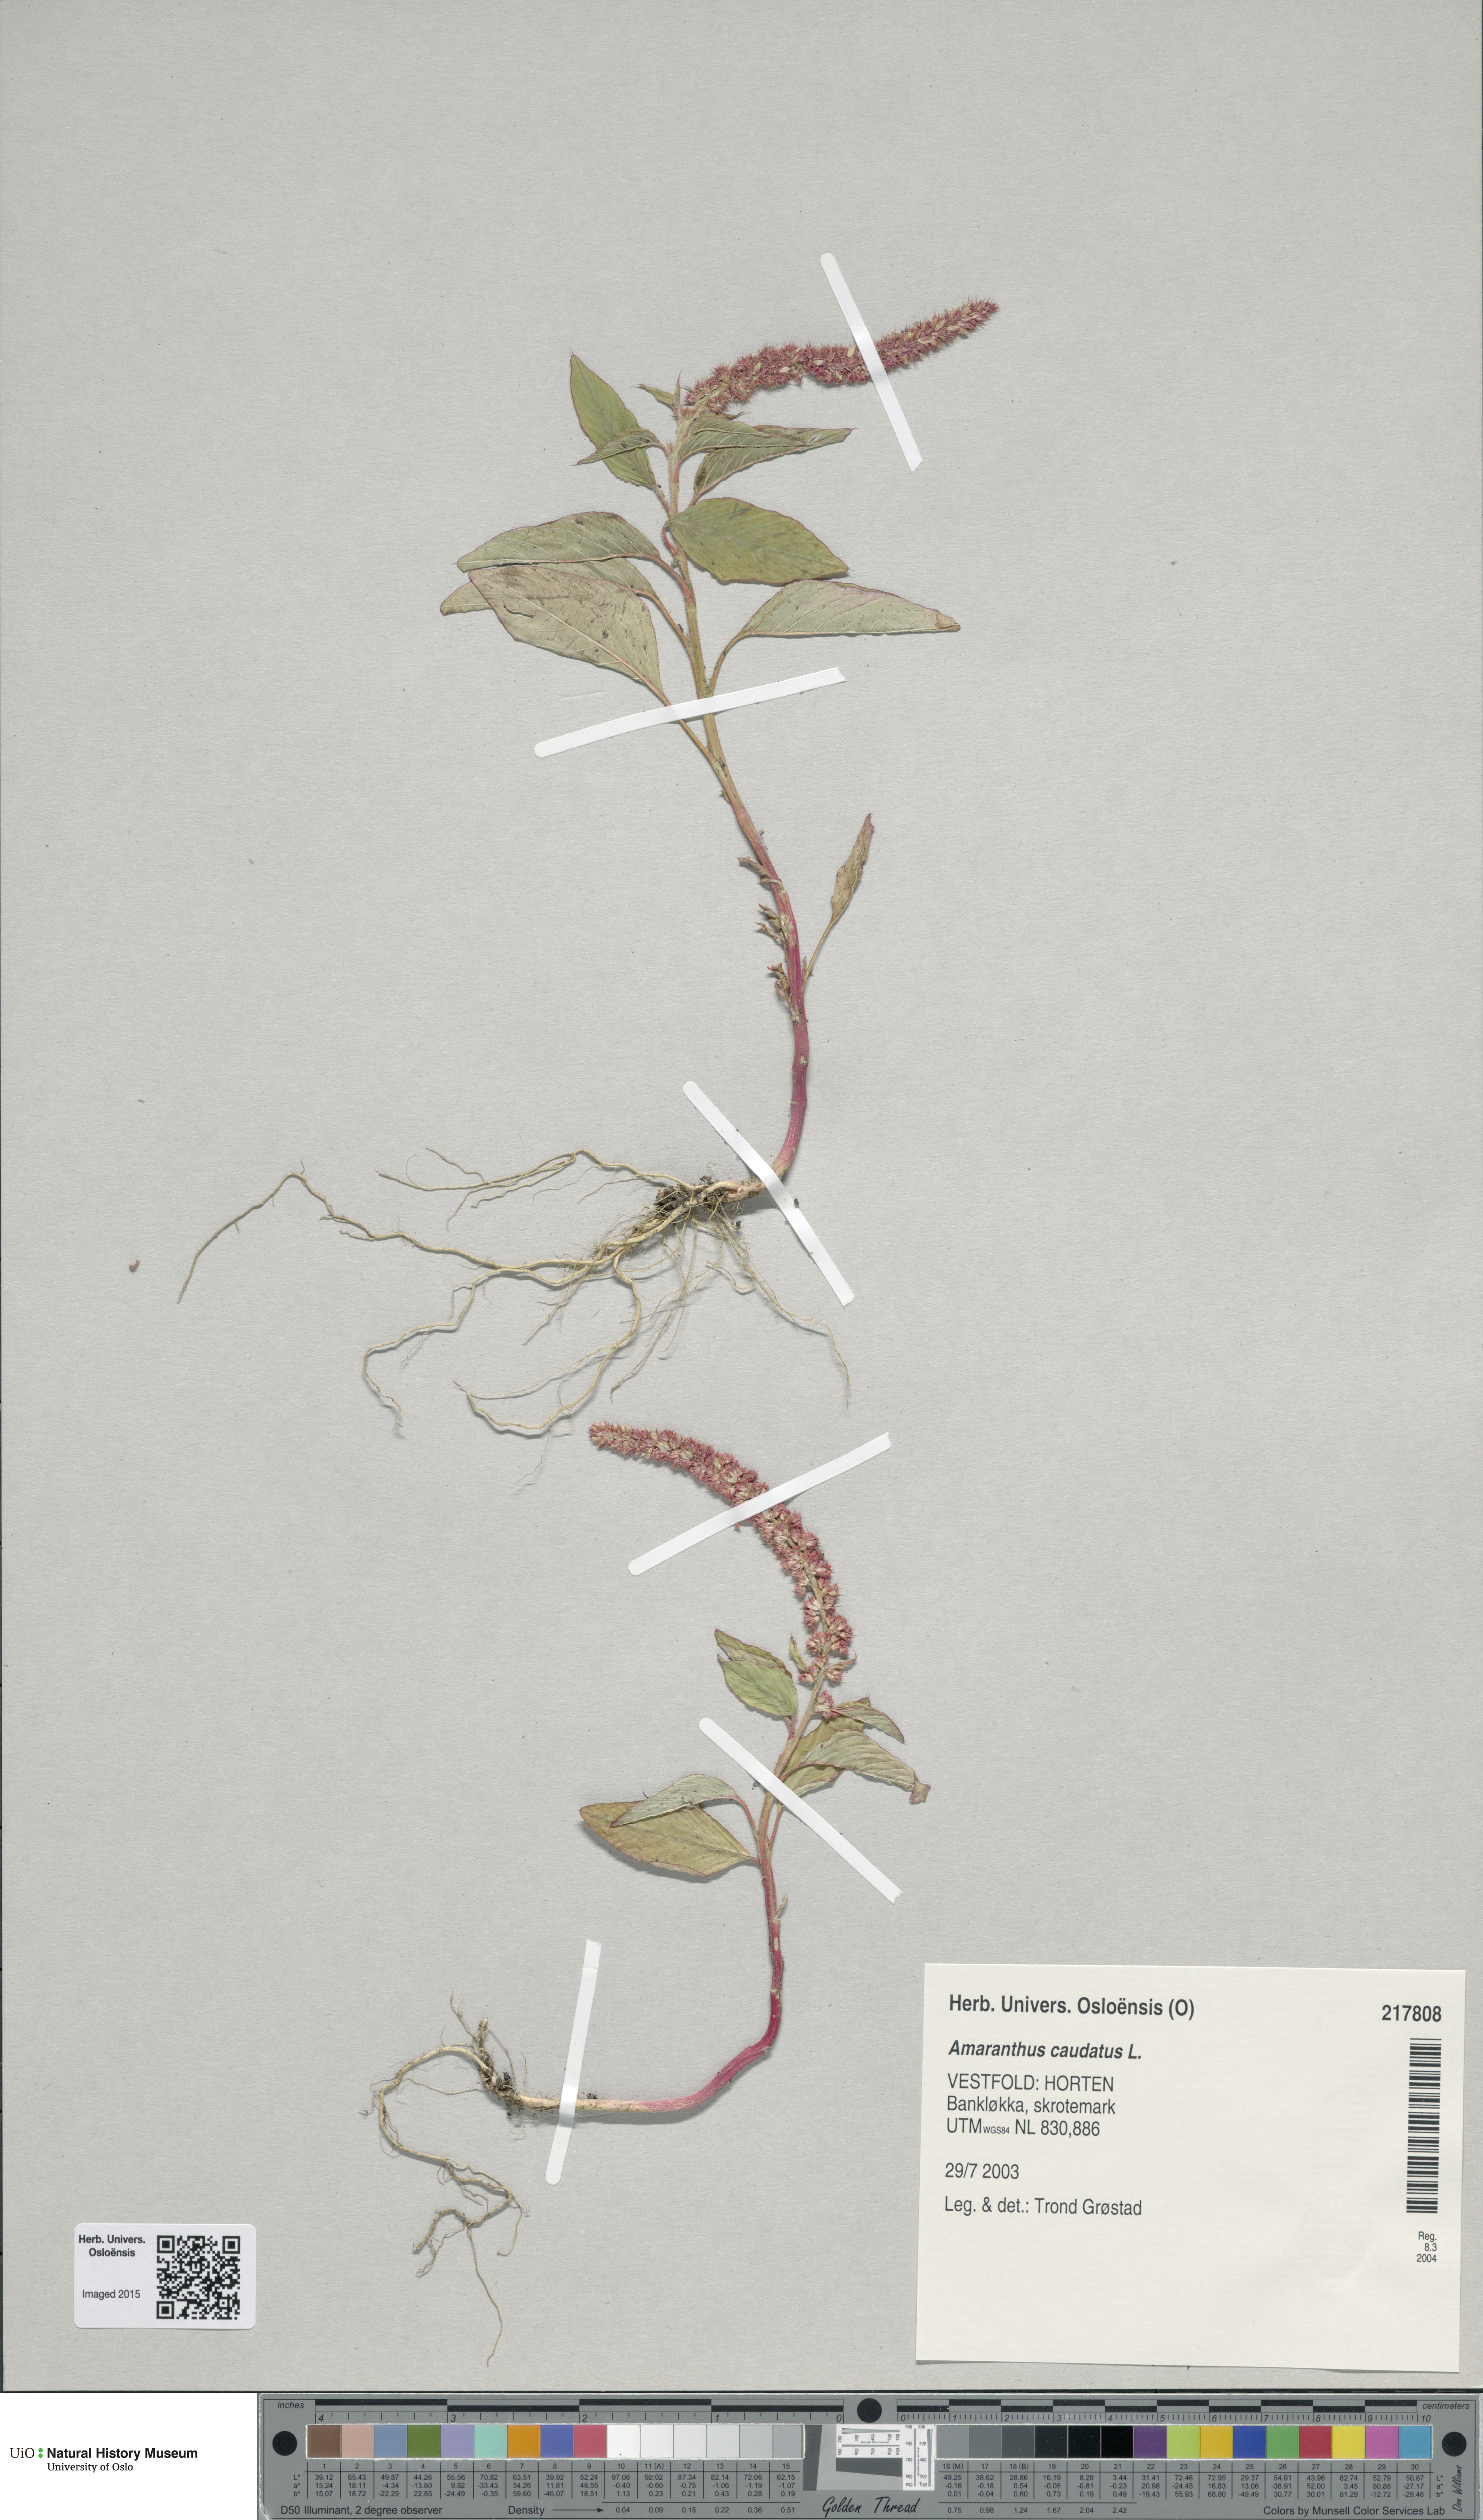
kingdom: Plantae
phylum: Tracheophyta
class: Magnoliopsida
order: Caryophyllales
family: Amaranthaceae
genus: Amaranthus
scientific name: Amaranthus caudatus
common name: Love-lies-bleeding
